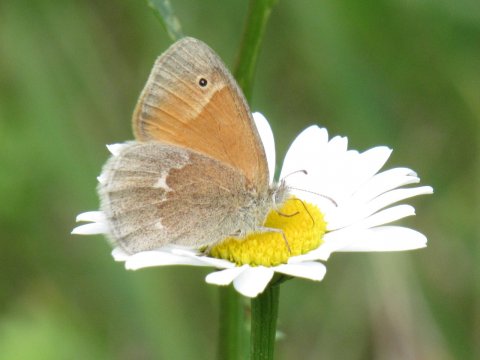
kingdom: Animalia
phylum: Arthropoda
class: Insecta
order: Lepidoptera
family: Nymphalidae
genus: Coenonympha
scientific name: Coenonympha tullia
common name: Large Heath
